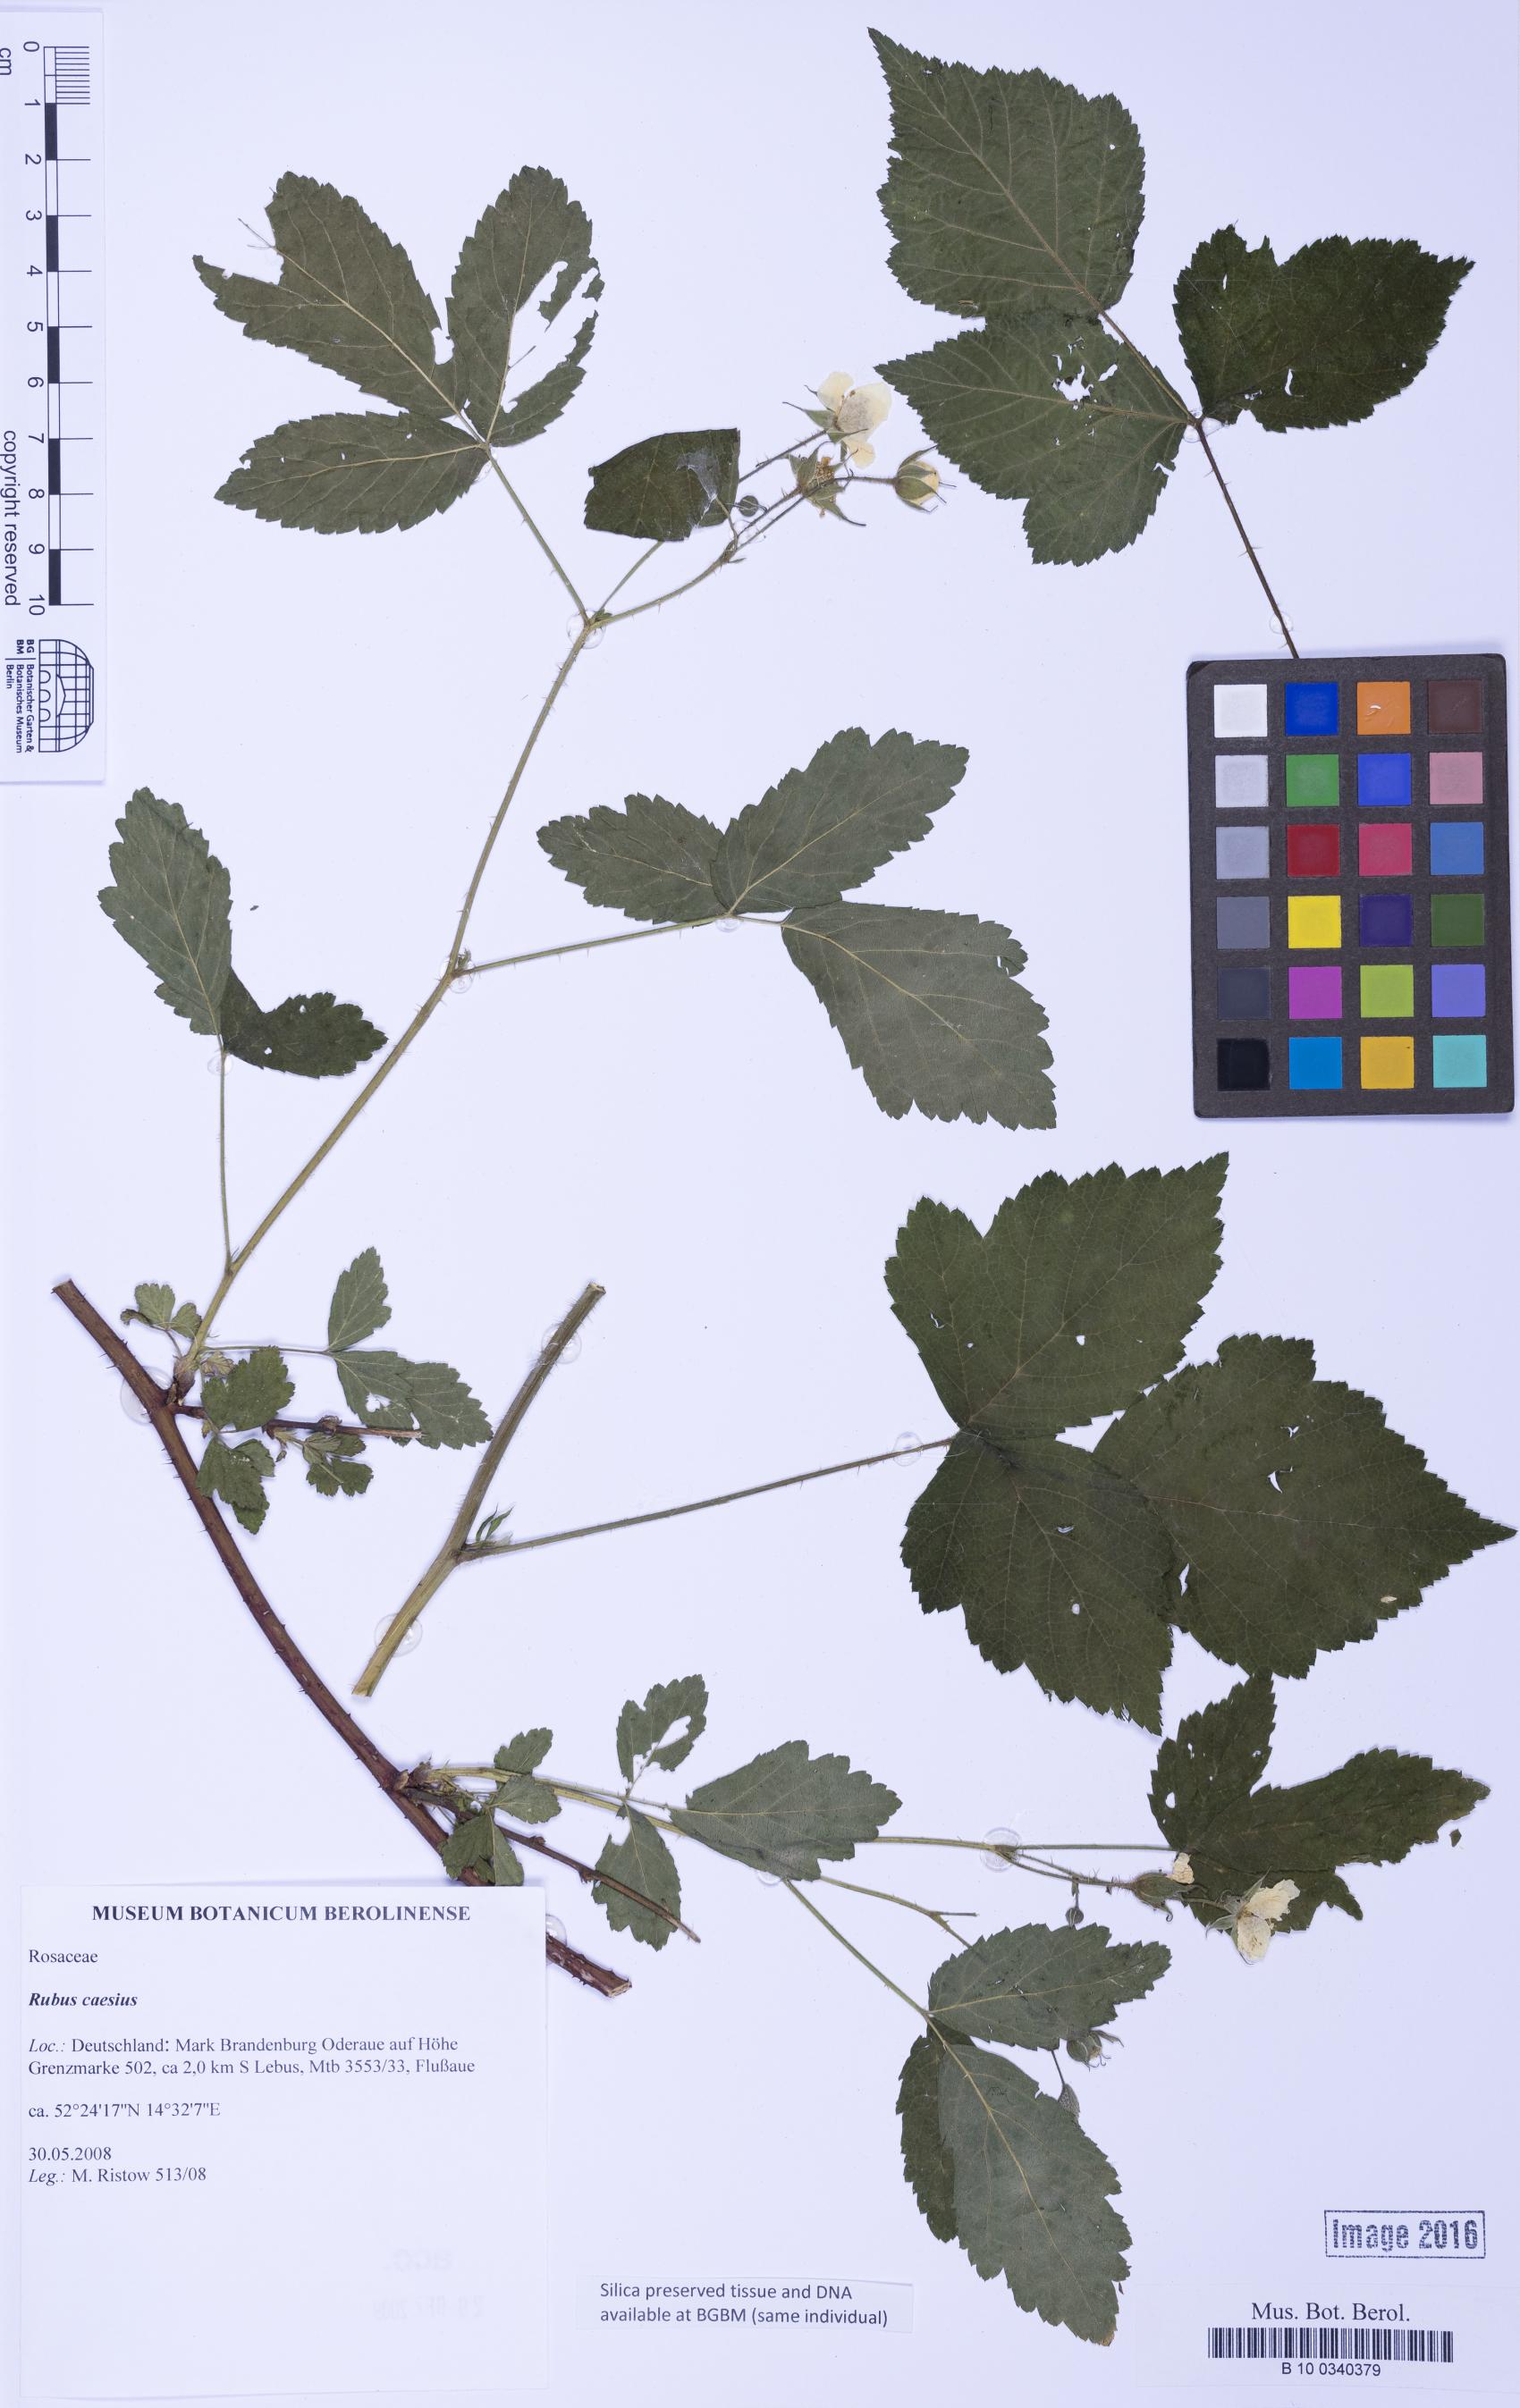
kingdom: Plantae
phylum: Tracheophyta
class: Magnoliopsida
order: Rosales
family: Rosaceae
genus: Rubus
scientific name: Rubus caesius
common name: Dewberry
